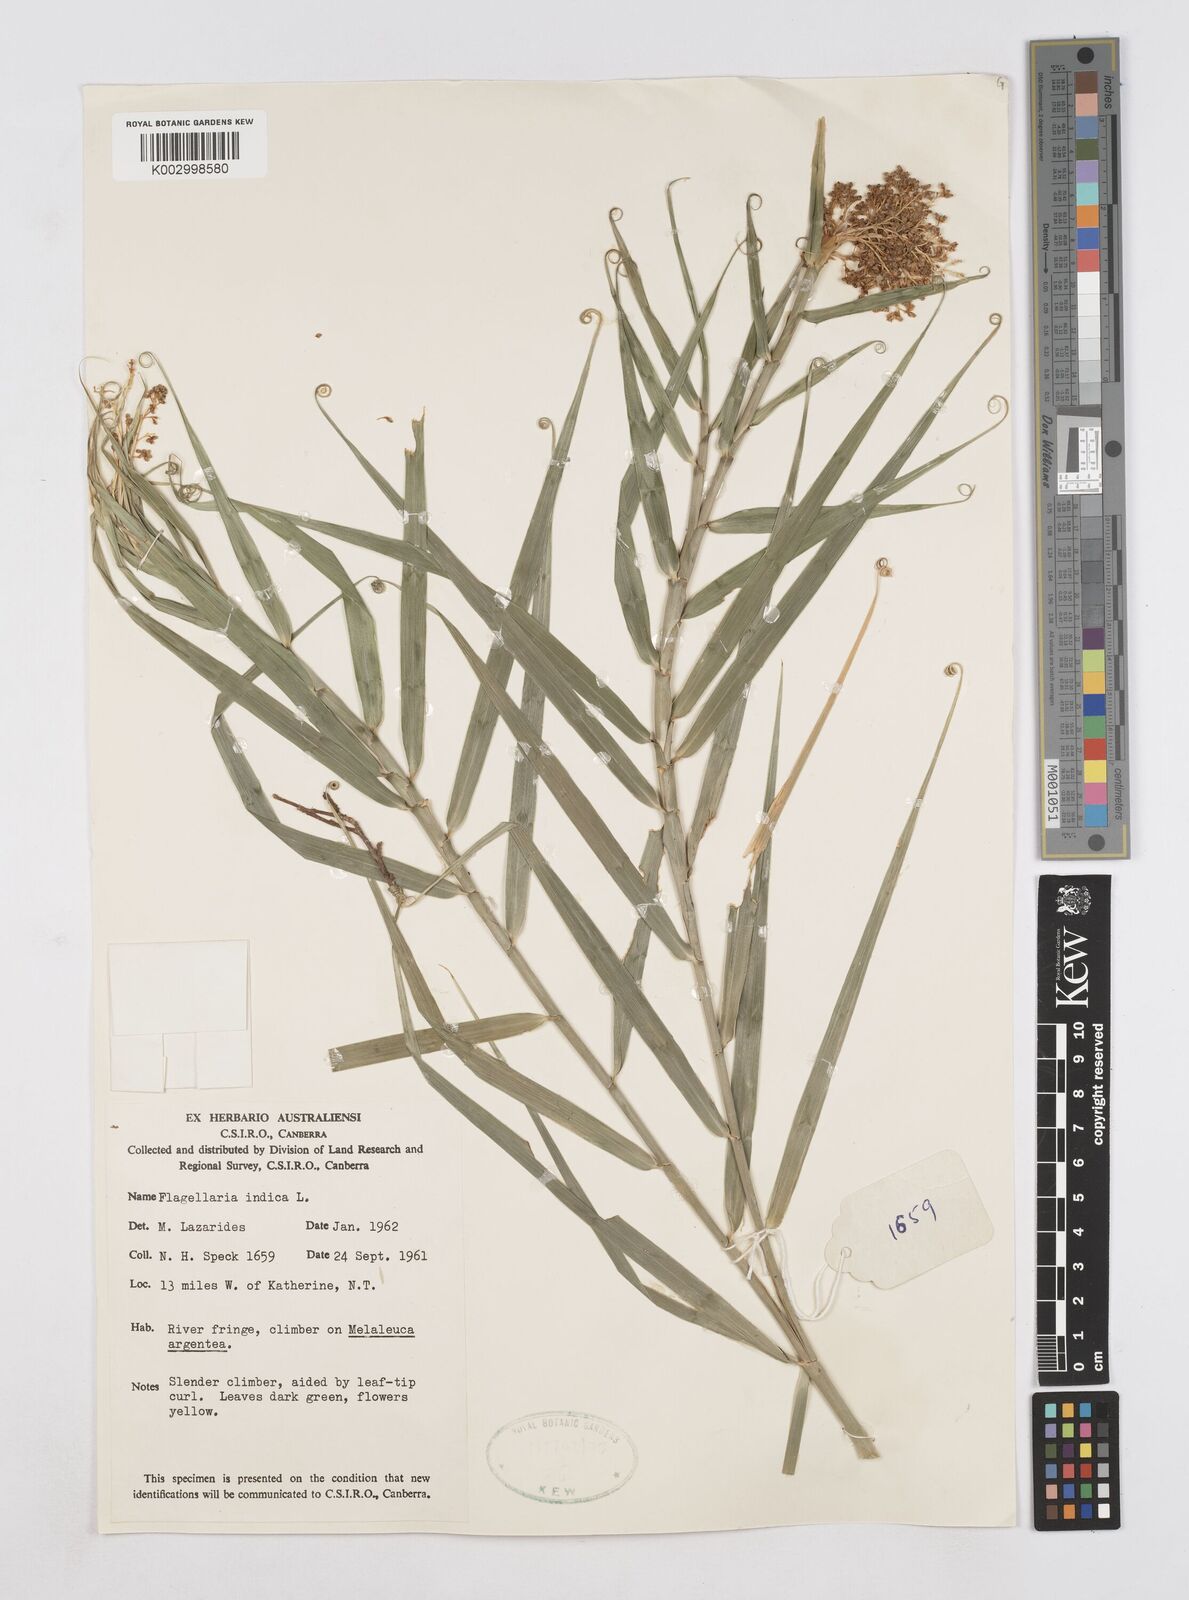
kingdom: Plantae
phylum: Tracheophyta
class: Liliopsida
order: Poales
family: Flagellariaceae
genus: Flagellaria
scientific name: Flagellaria indica
